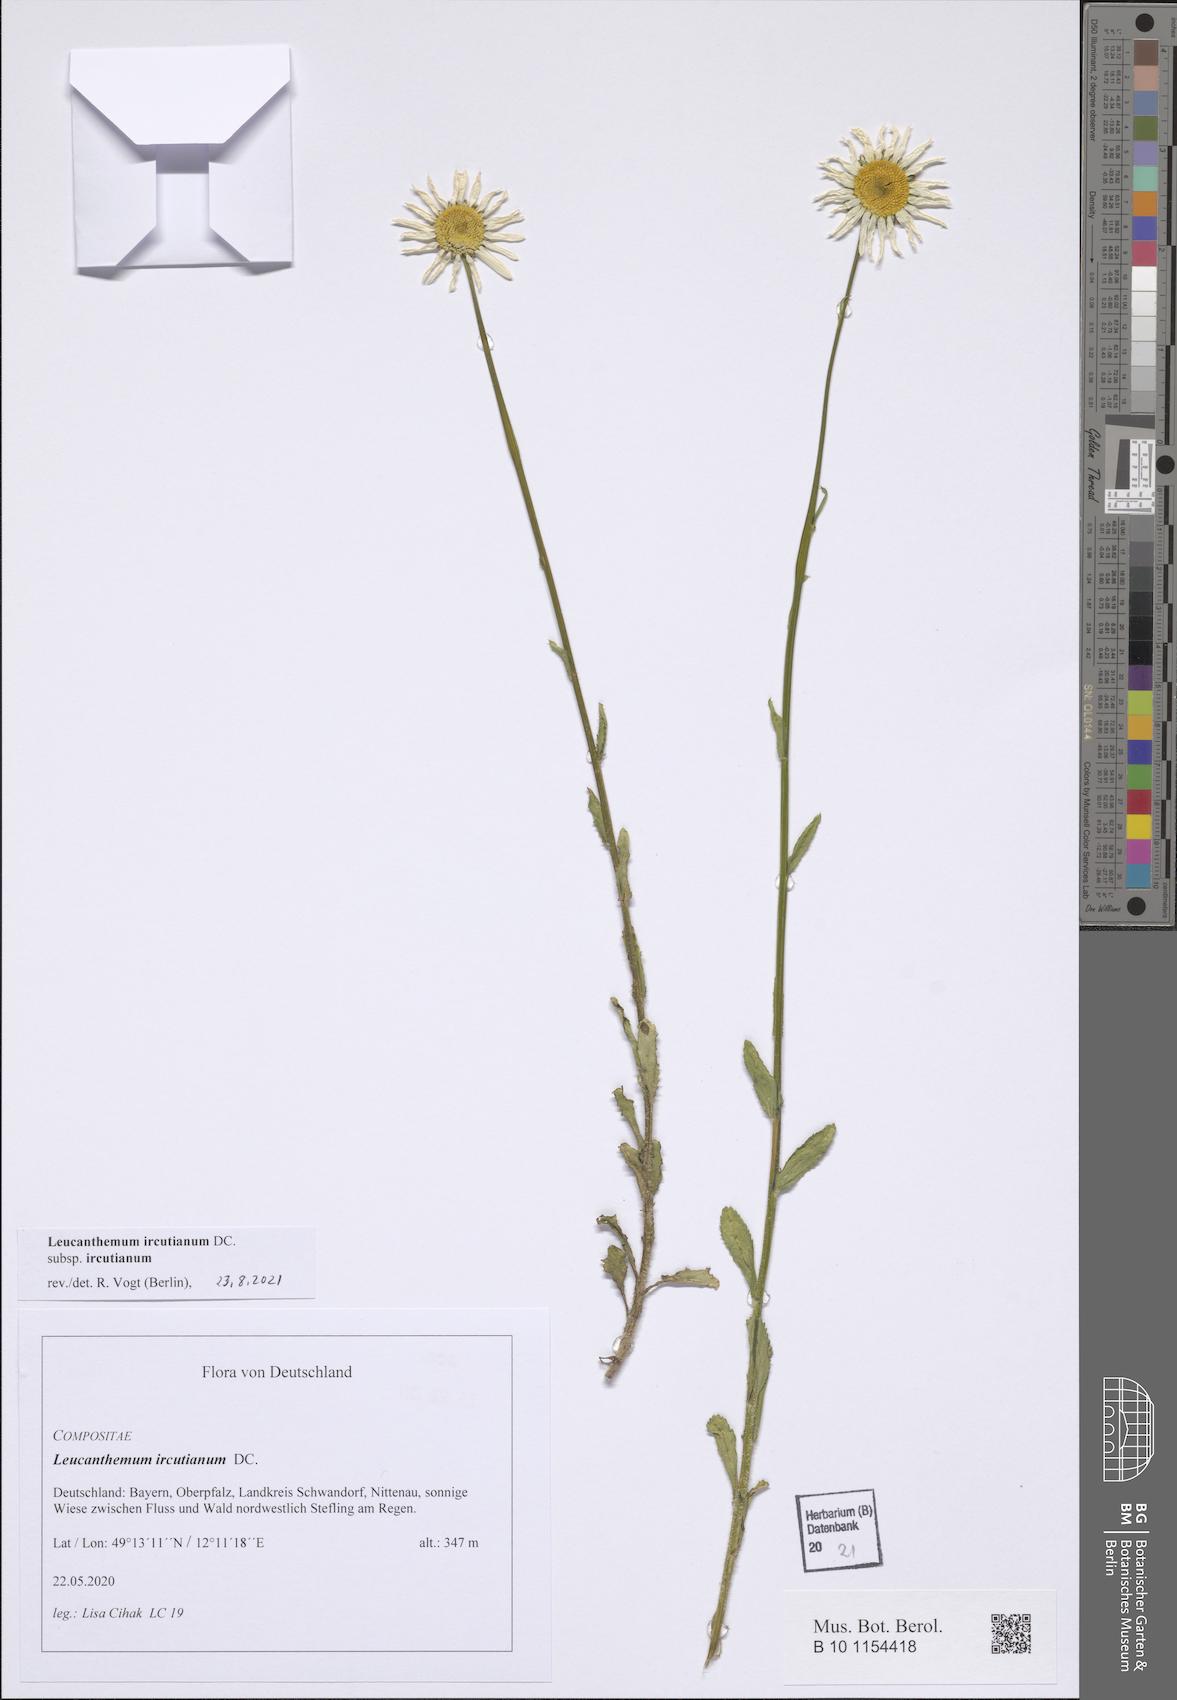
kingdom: Plantae
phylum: Tracheophyta
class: Magnoliopsida
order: Asterales
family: Asteraceae
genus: Leucanthemum
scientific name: Leucanthemum ircutianum
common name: Daisy
